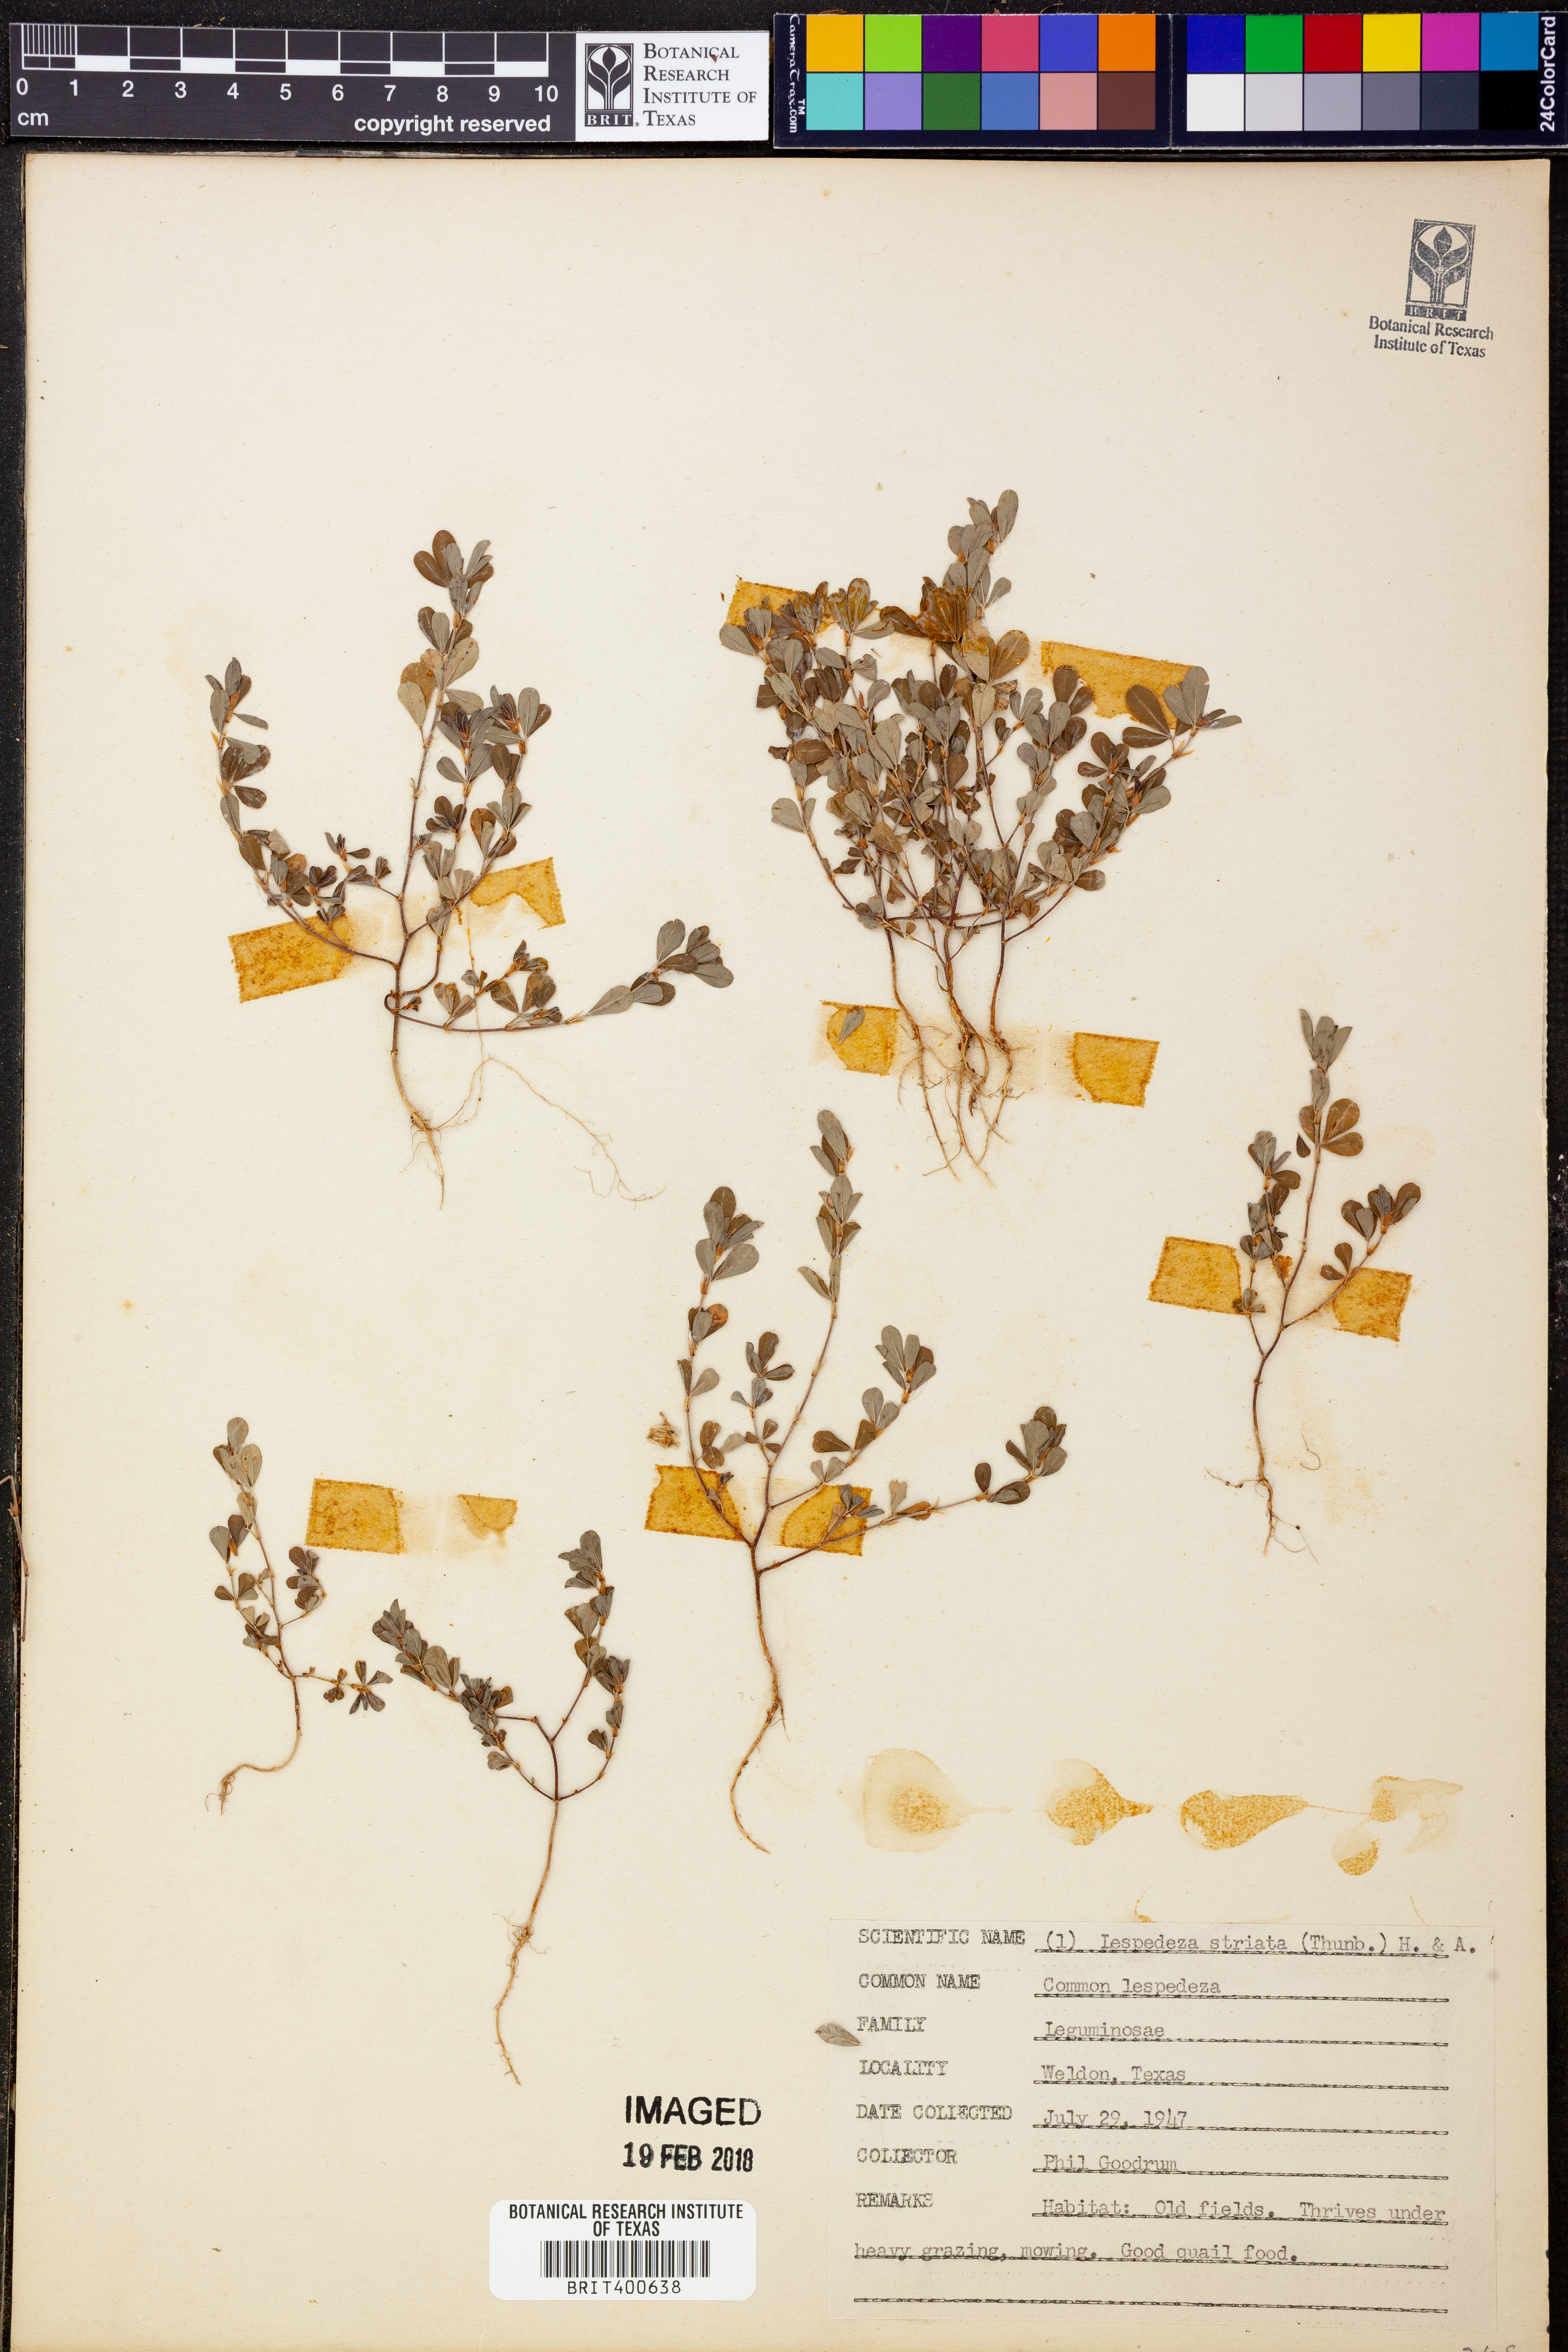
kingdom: Plantae
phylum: Tracheophyta
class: Magnoliopsida
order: Fabales
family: Fabaceae
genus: Kummerowia
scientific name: Kummerowia striata
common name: Japanese clover
